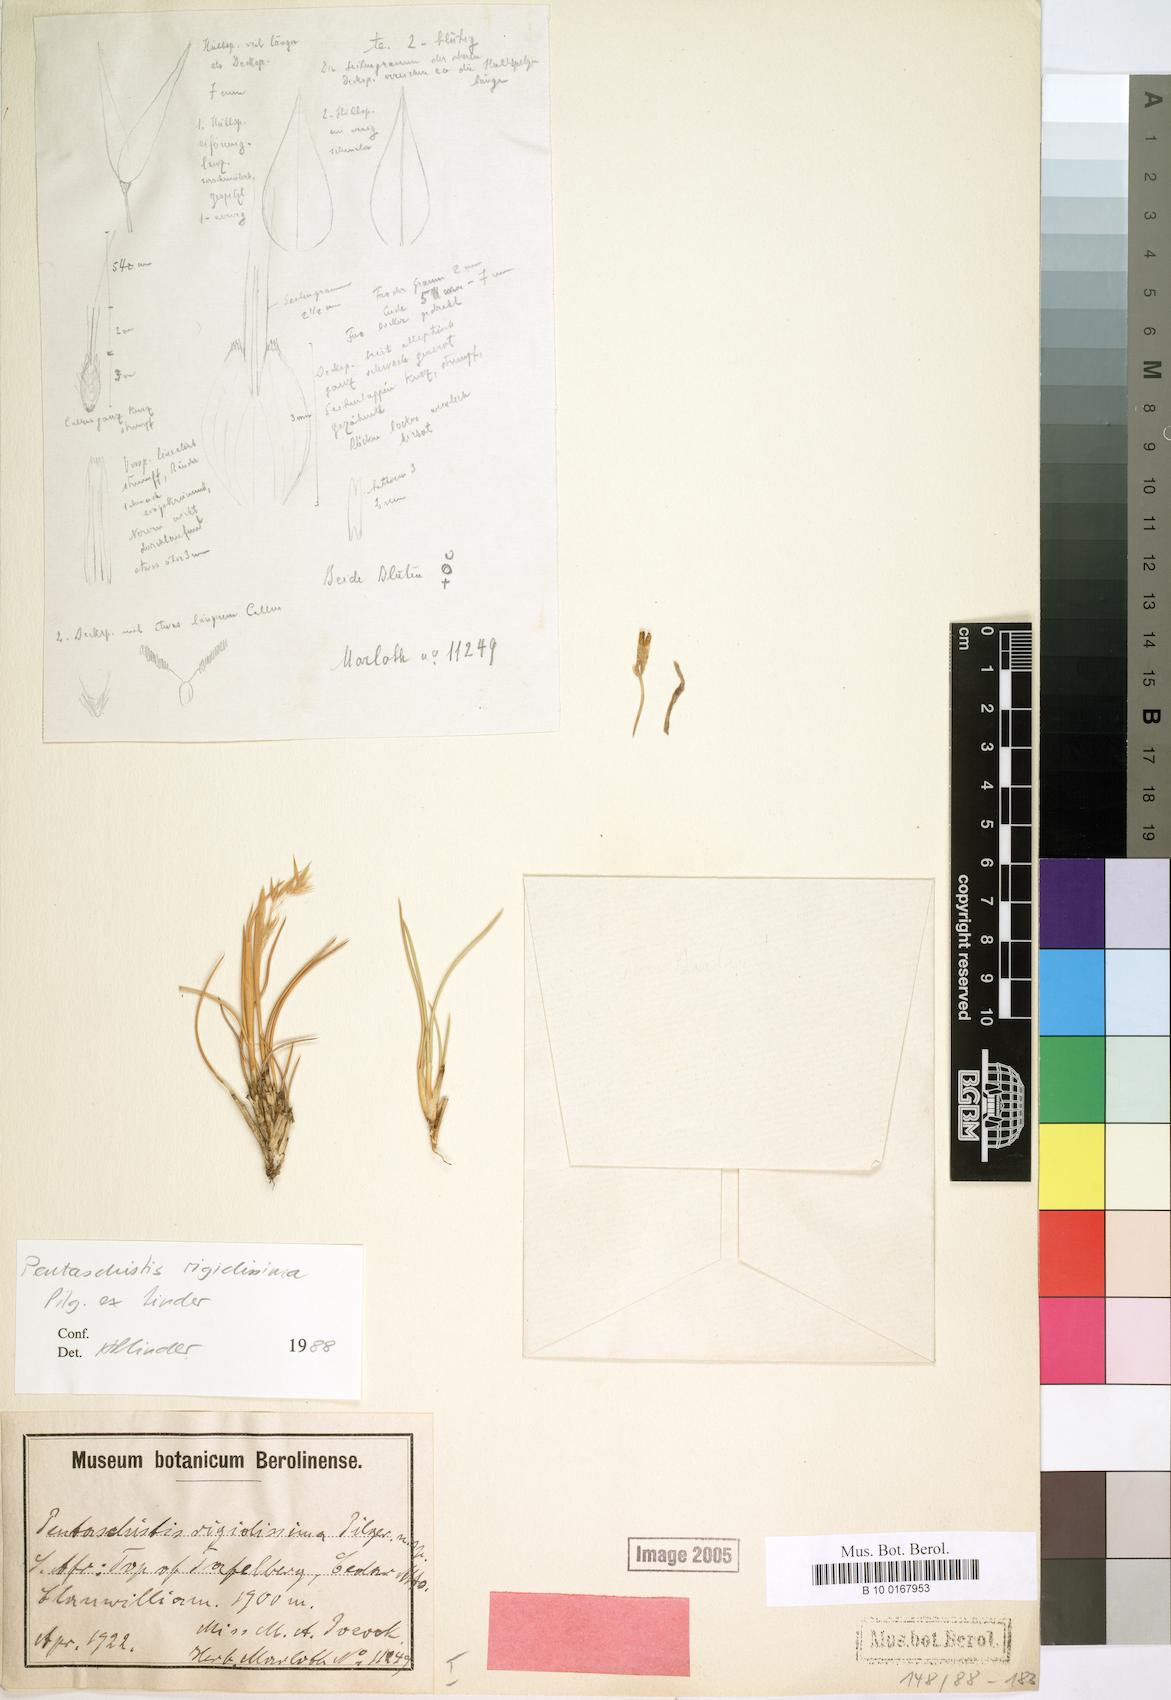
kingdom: Plantae
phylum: Tracheophyta
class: Liliopsida
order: Poales
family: Poaceae
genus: Pentameris
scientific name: Pentameris rigidissima
